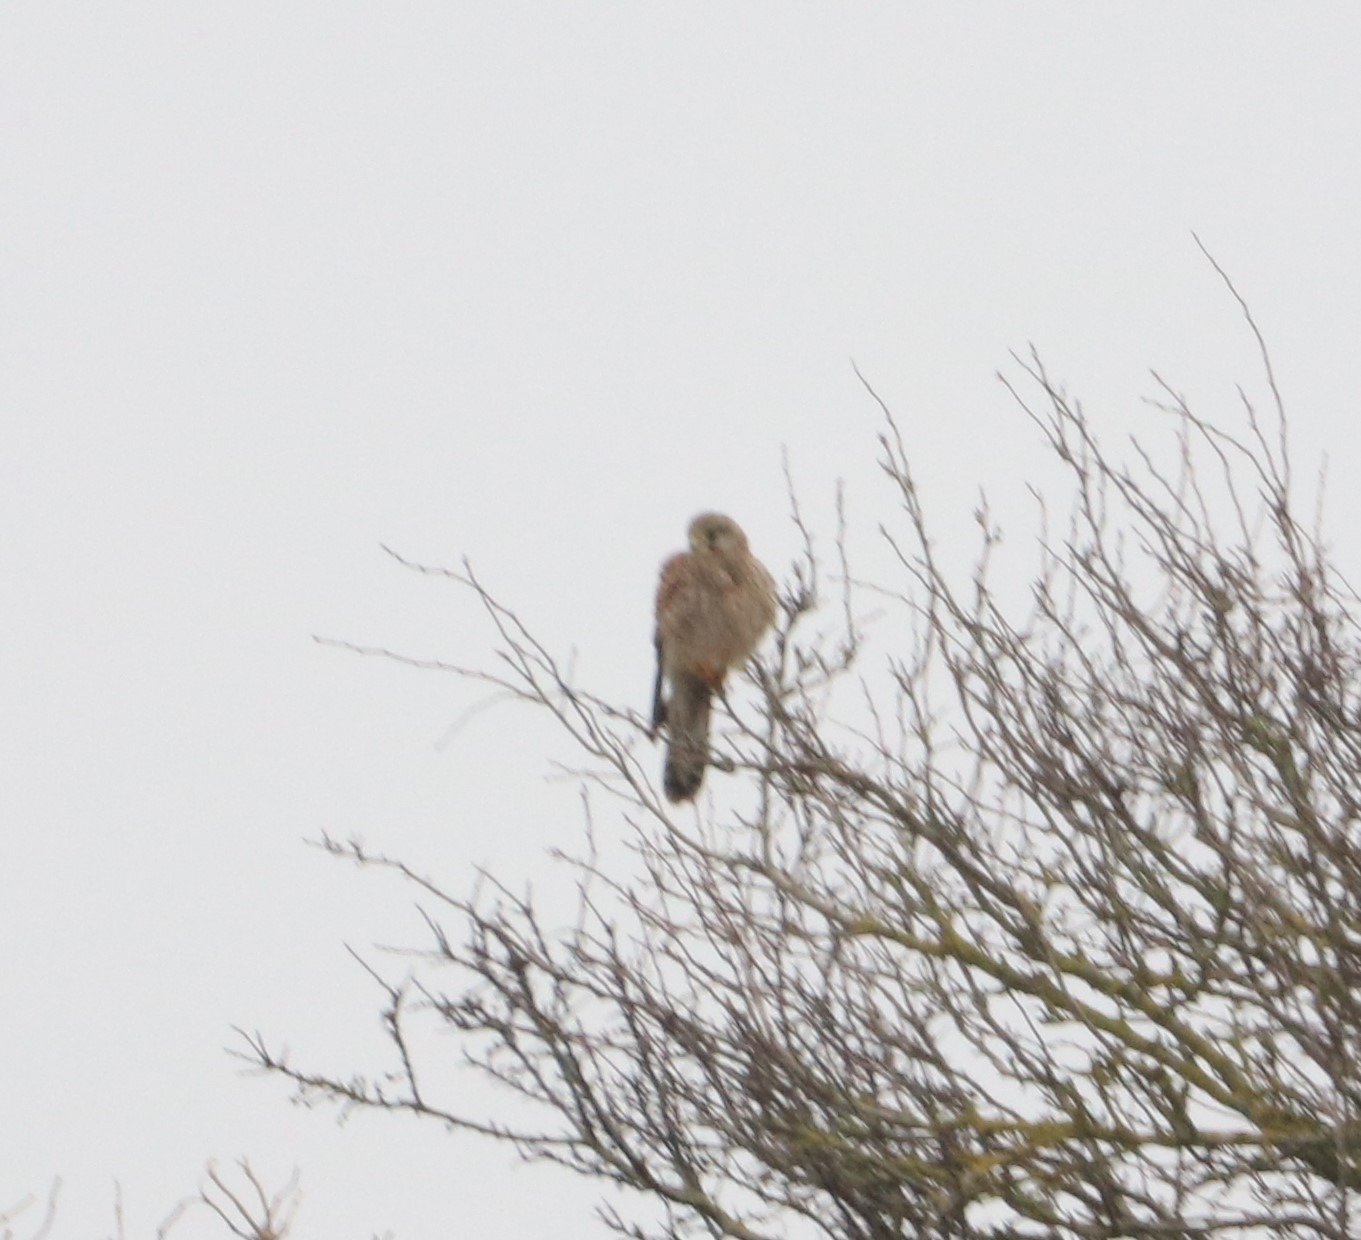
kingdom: Animalia
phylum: Chordata
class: Aves
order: Falconiformes
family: Falconidae
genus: Falco
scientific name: Falco tinnunculus
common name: Tårnfalk
